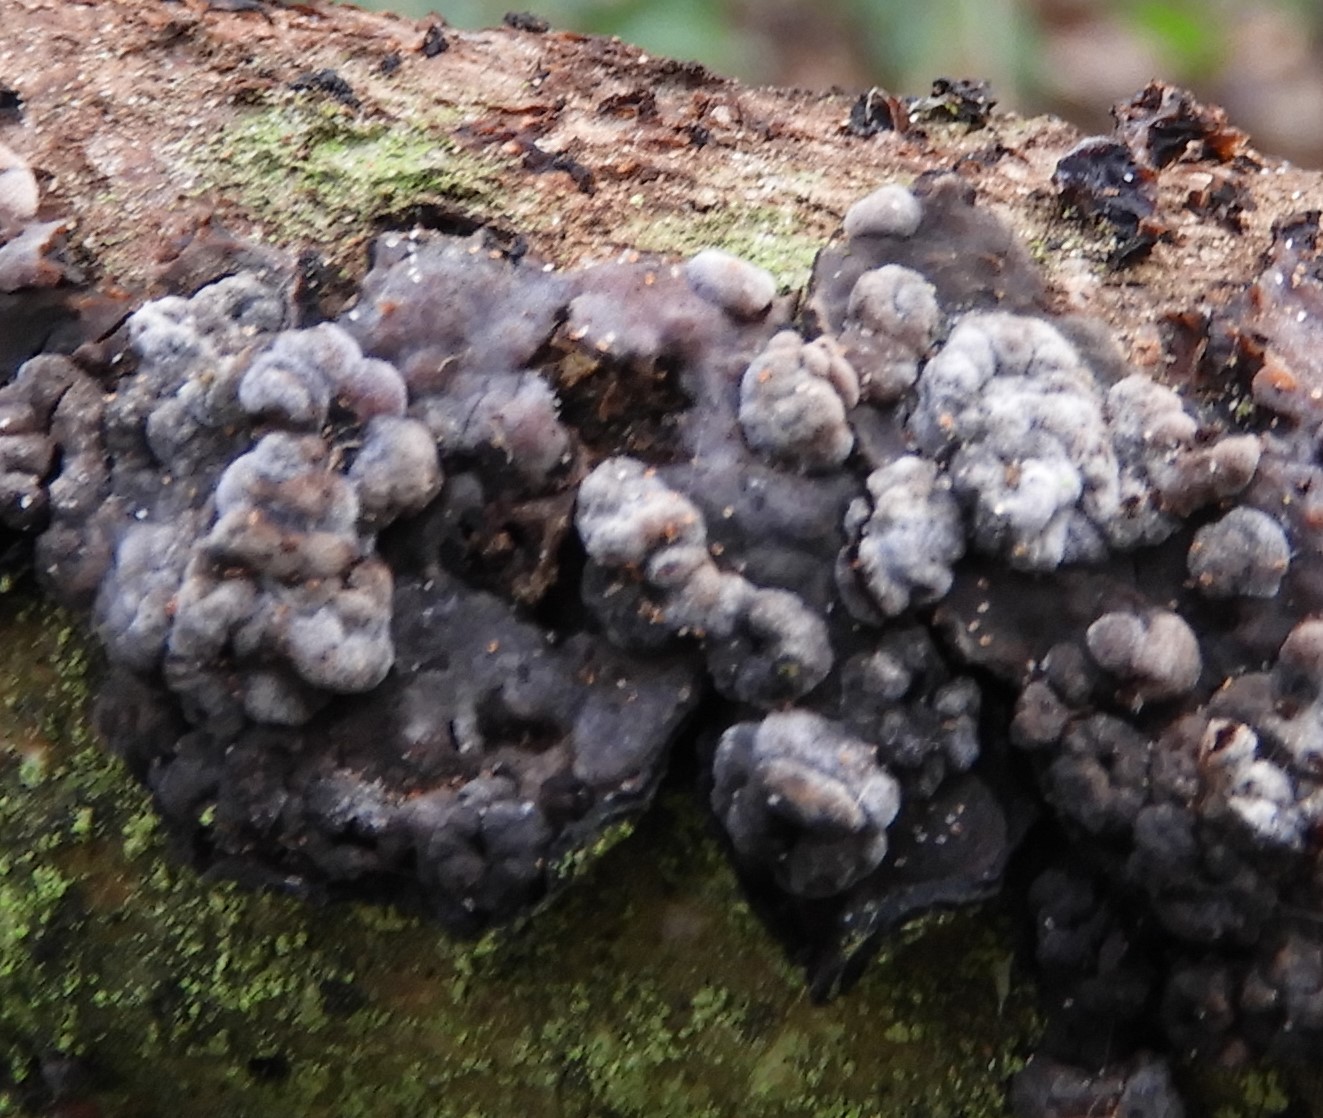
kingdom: Fungi
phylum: Basidiomycota
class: Pucciniomycetes
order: Platygloeales
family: Platygloeaceae
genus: Platygloea
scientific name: Platygloea
